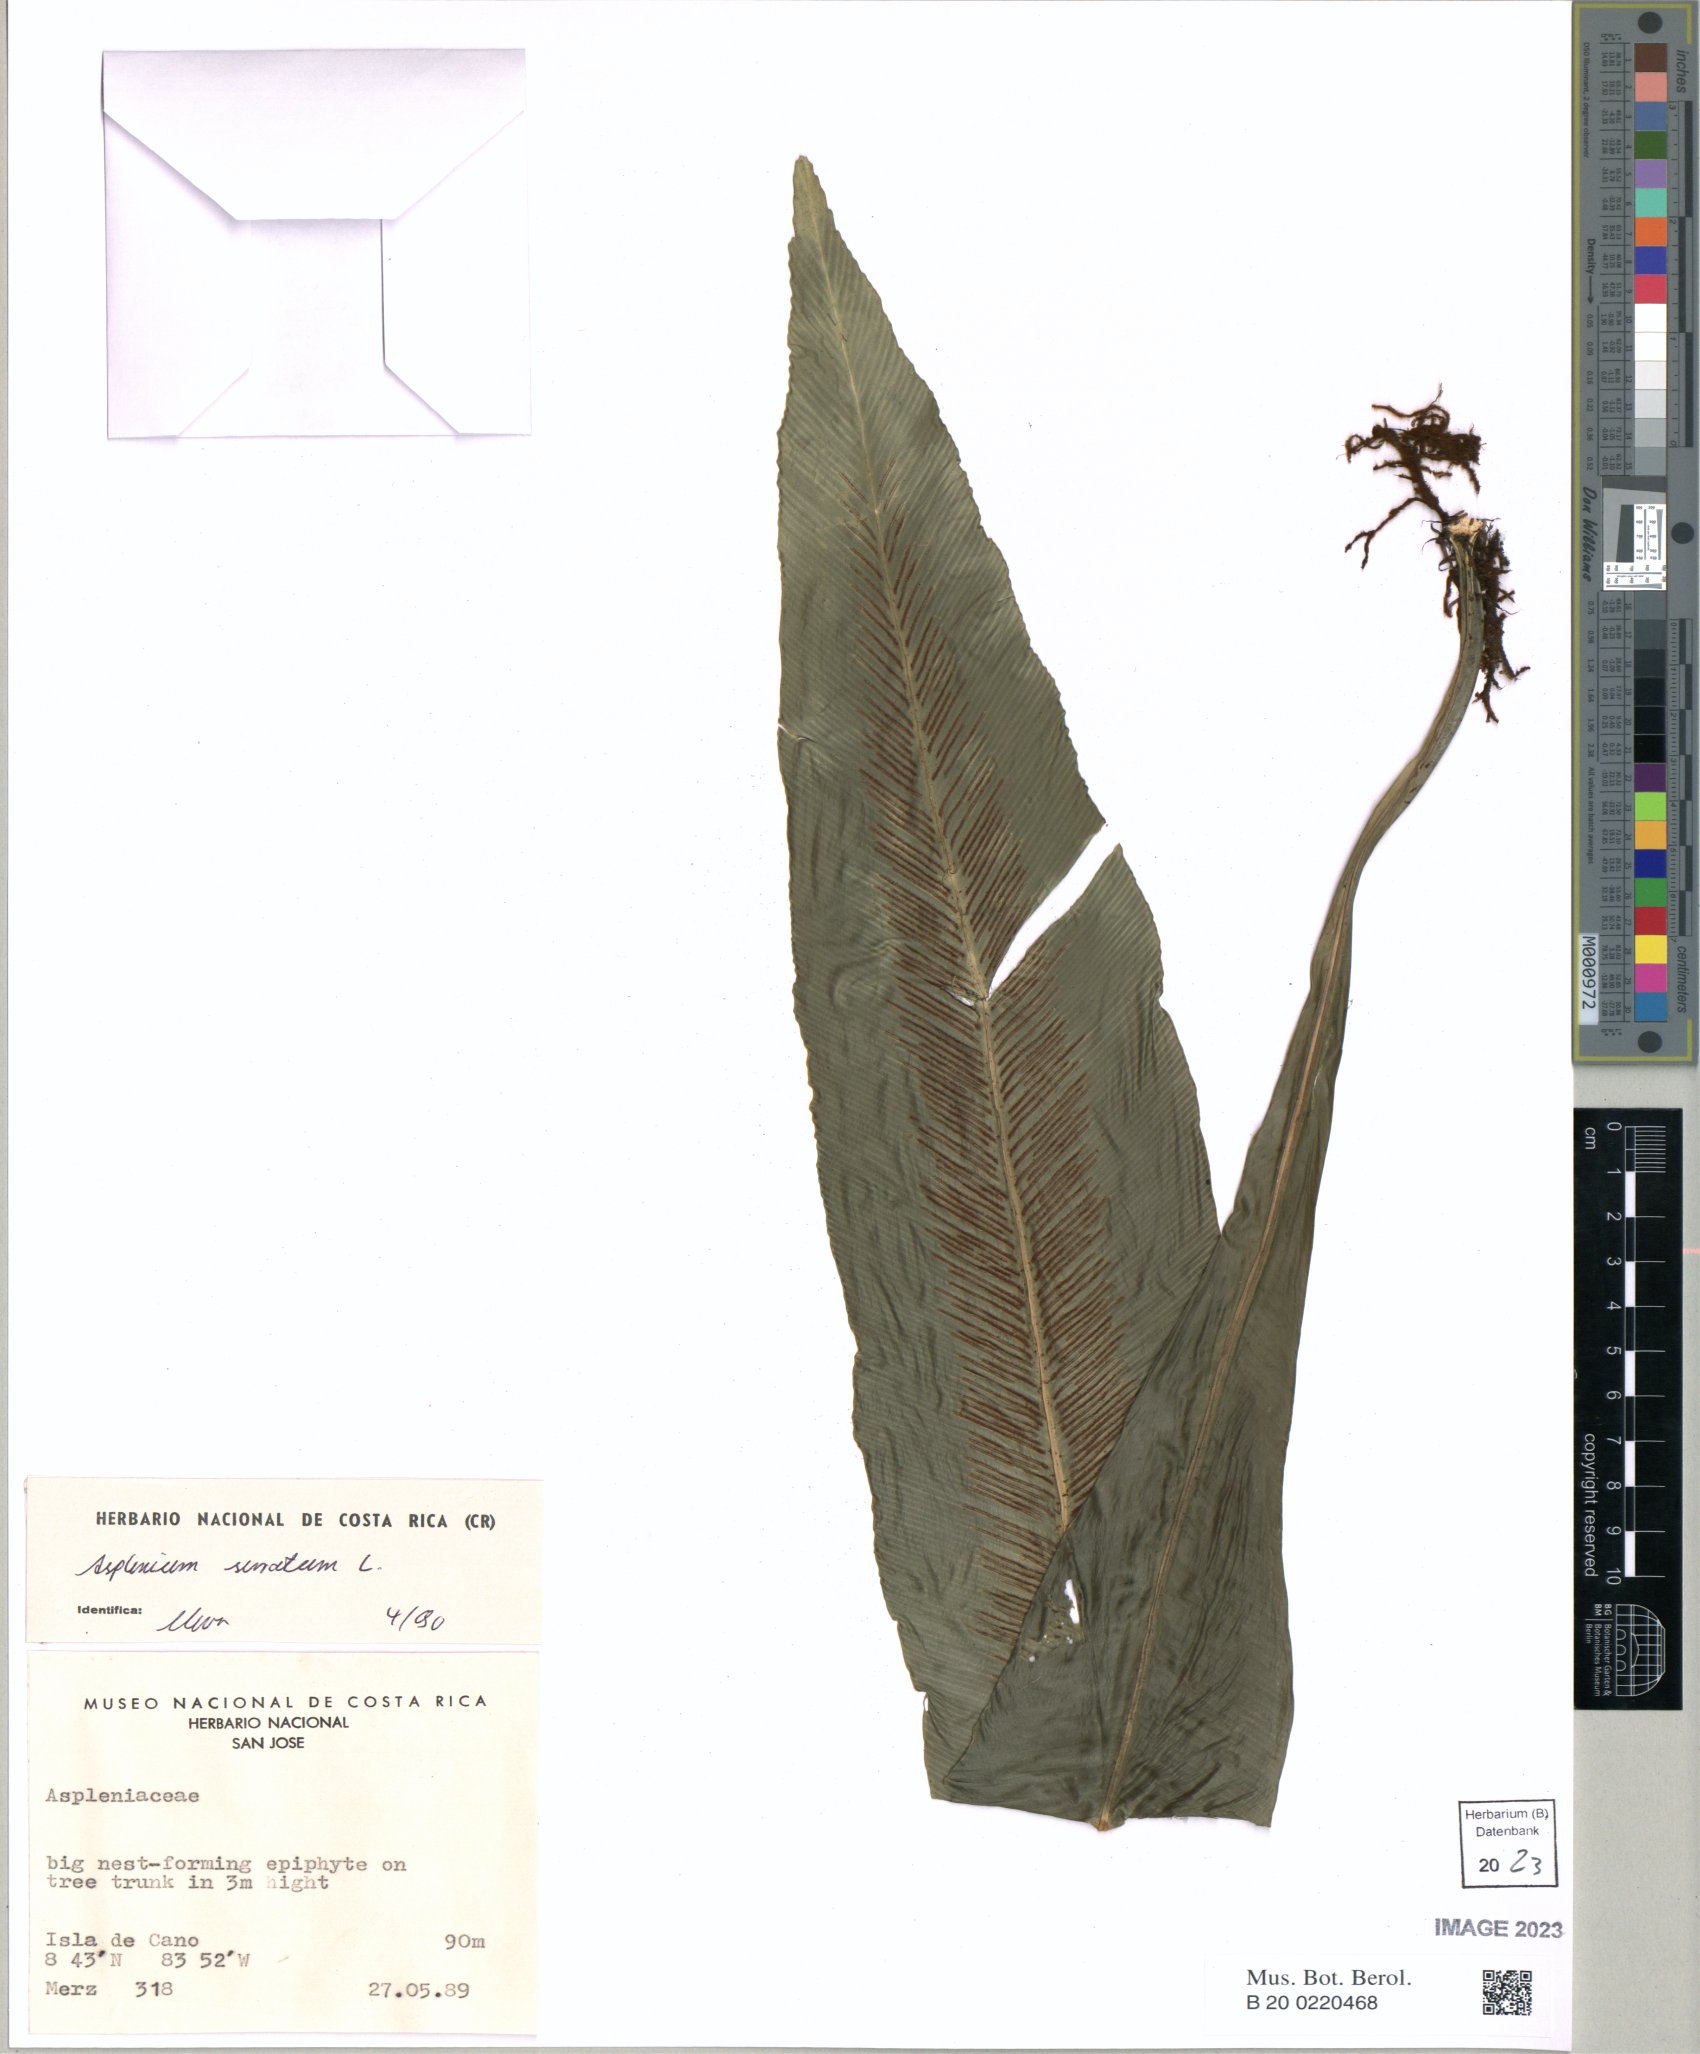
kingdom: Plantae
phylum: Tracheophyta
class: Polypodiopsida
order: Polypodiales
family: Aspleniaceae
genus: Asplenium
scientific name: Asplenium serratum
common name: Wild birdnest fern
